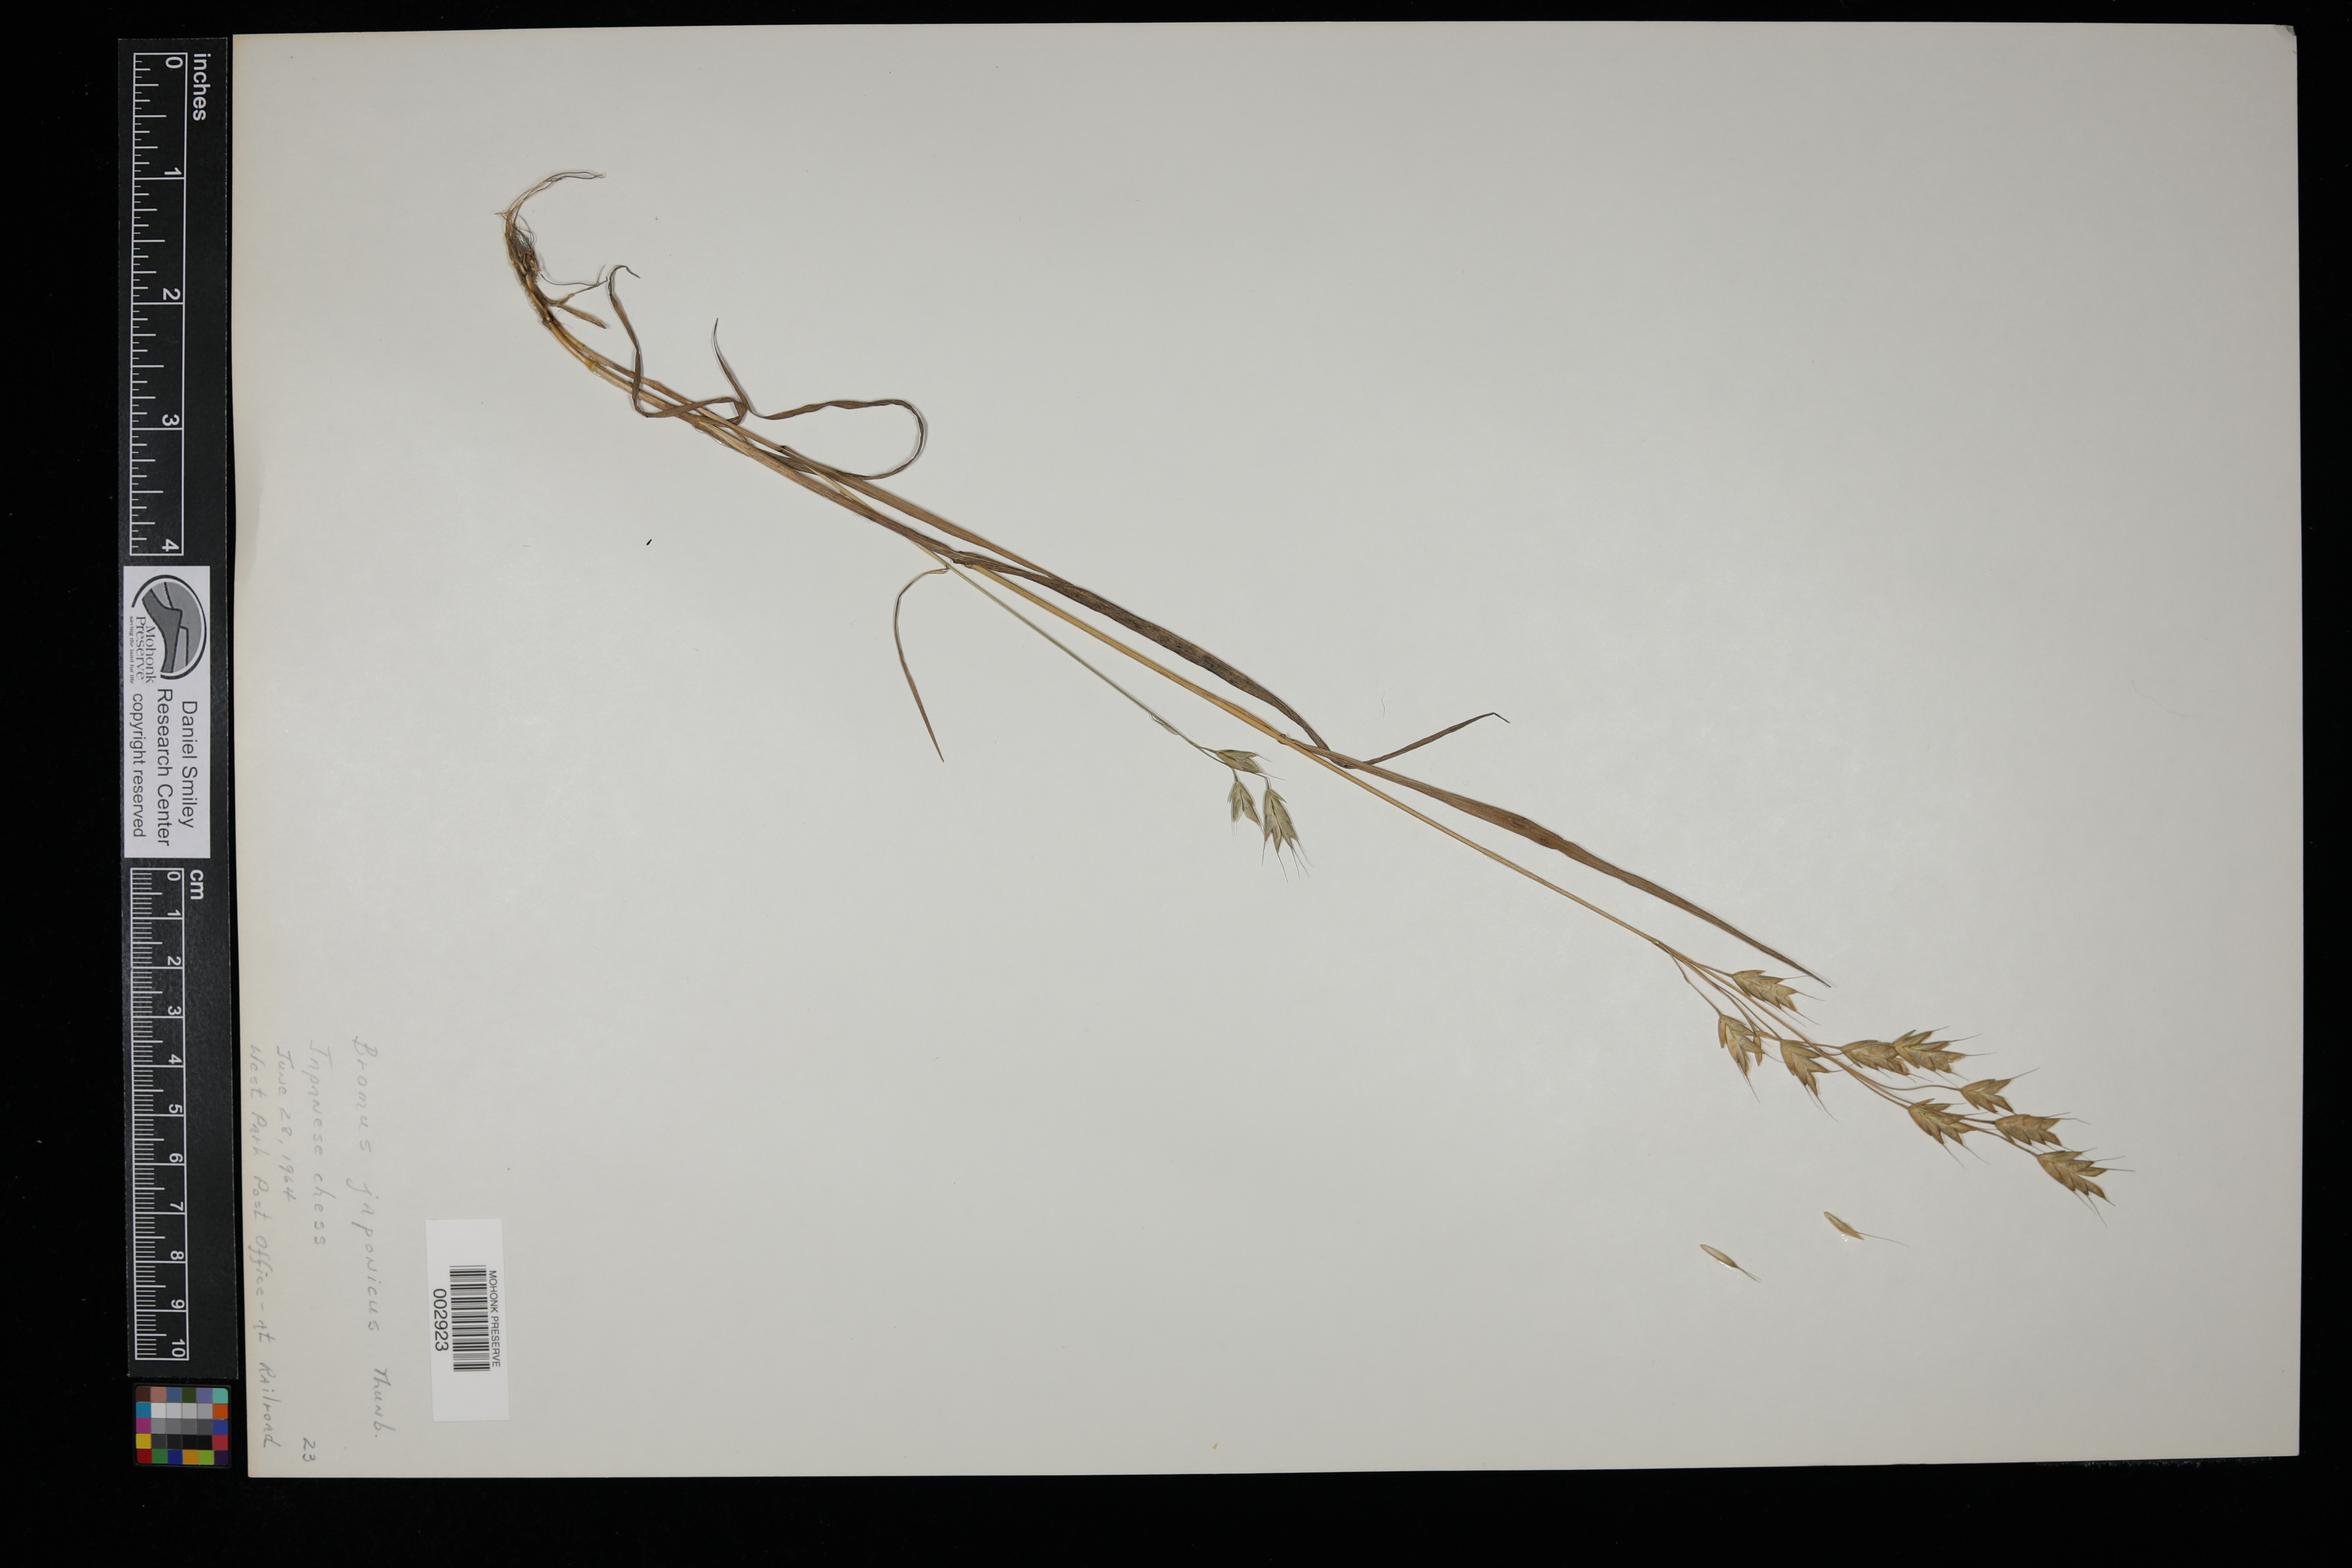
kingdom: Plantae
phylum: Tracheophyta
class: Liliopsida
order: Poales
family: Poaceae
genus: Bromus
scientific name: Bromus japonicus
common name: Japanese brome
